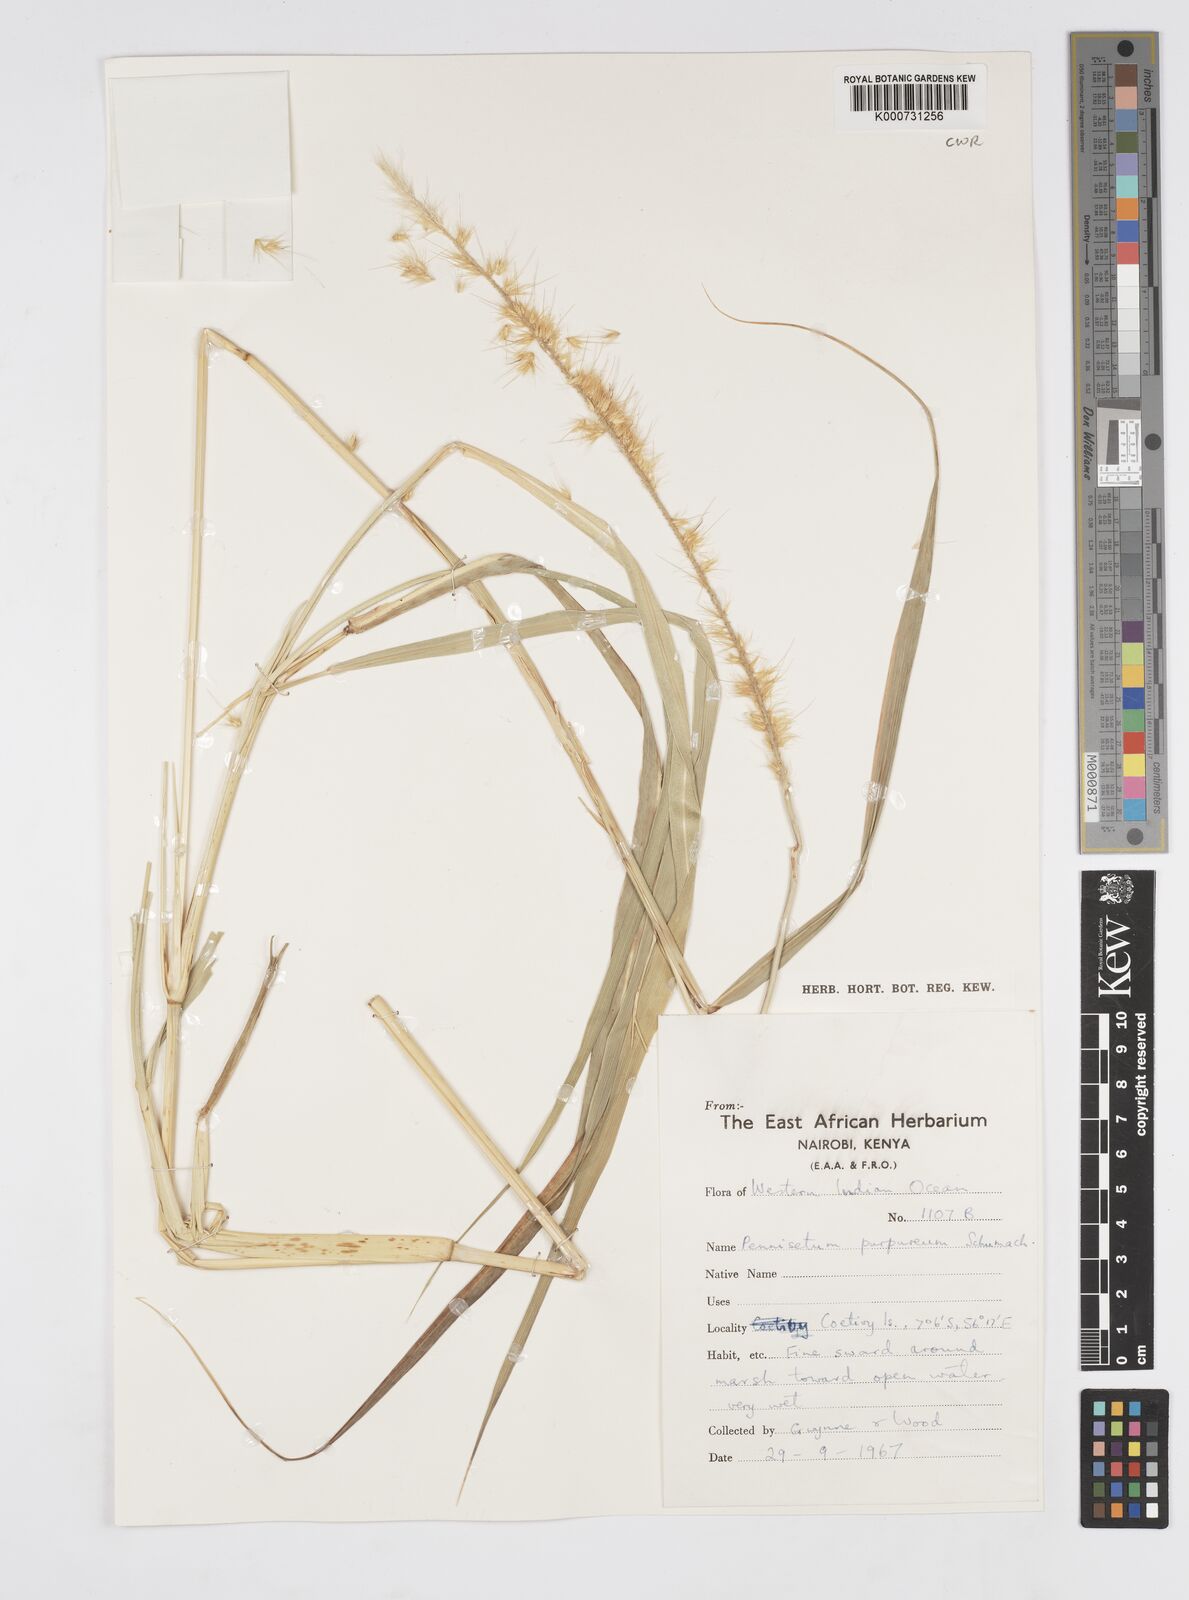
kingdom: Plantae
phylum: Tracheophyta
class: Liliopsida
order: Poales
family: Poaceae
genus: Cenchrus
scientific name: Cenchrus purpureus
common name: Elephant grass
